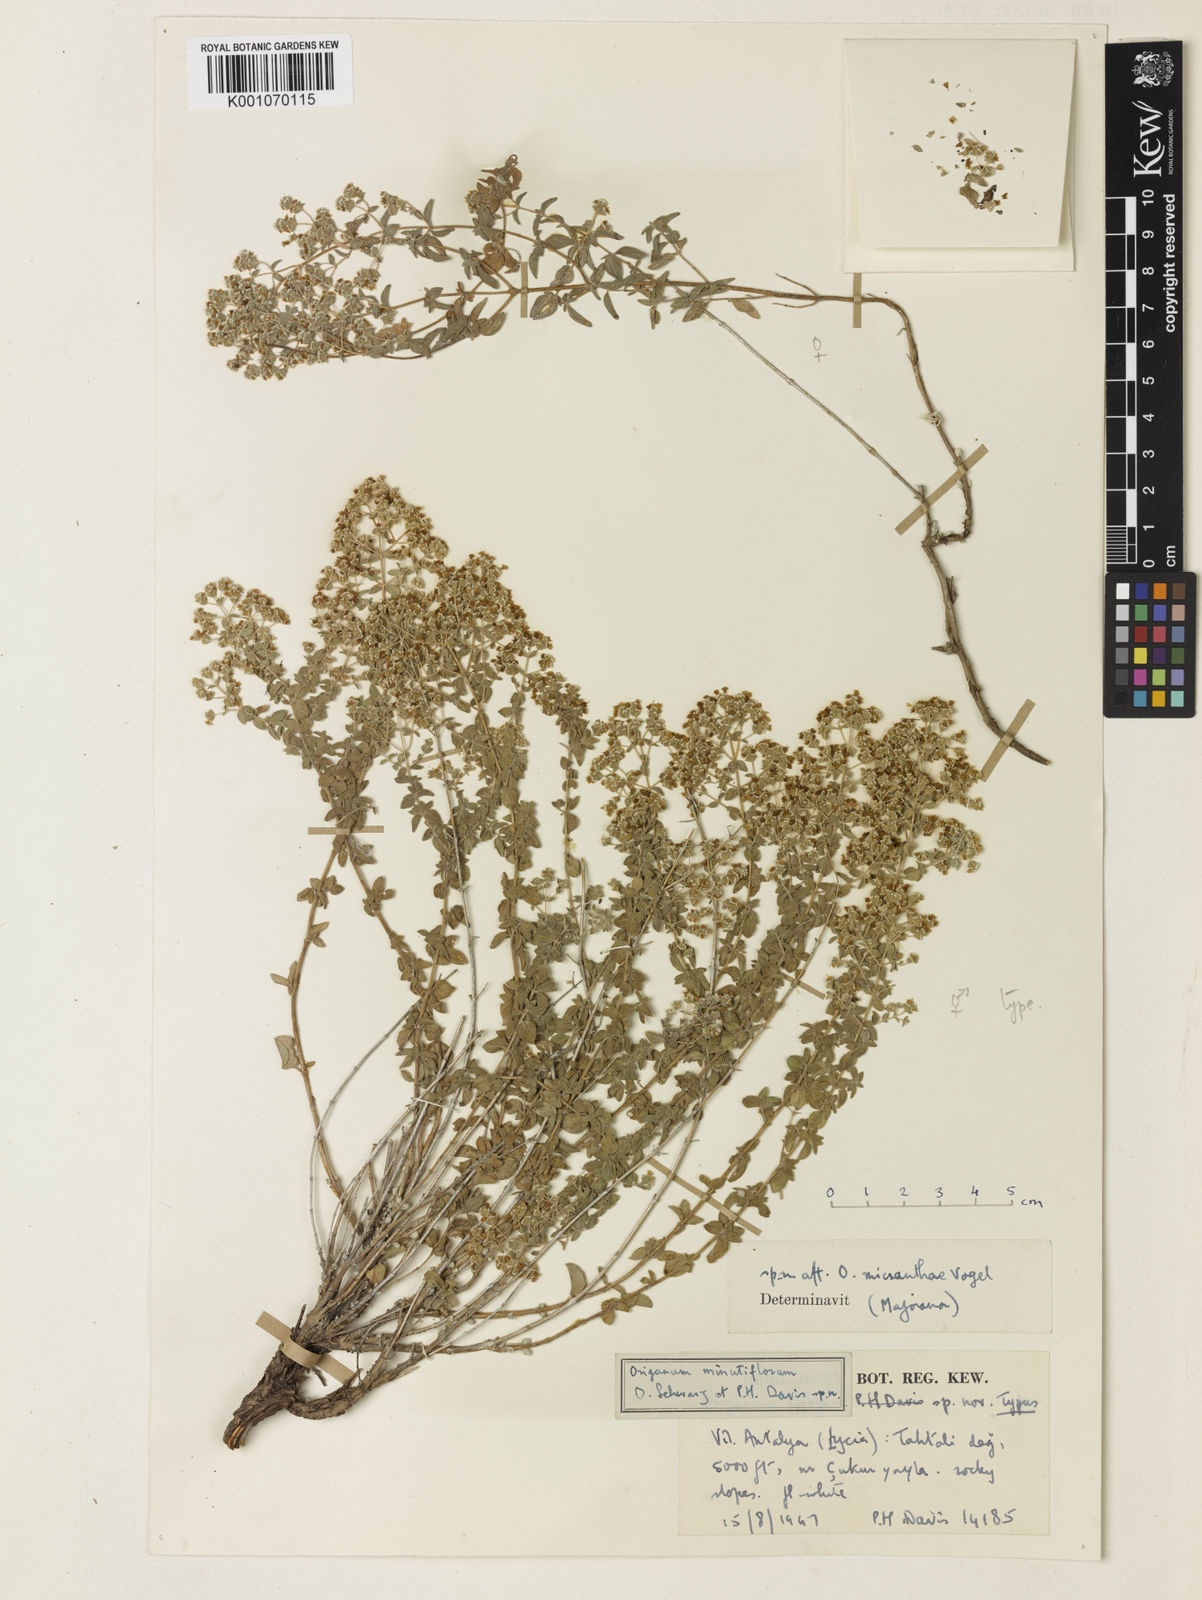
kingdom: Plantae
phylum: Tracheophyta
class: Magnoliopsida
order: Lamiales
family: Lamiaceae
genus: Origanum
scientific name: Origanum minutiflorum
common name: Spartan oregano
